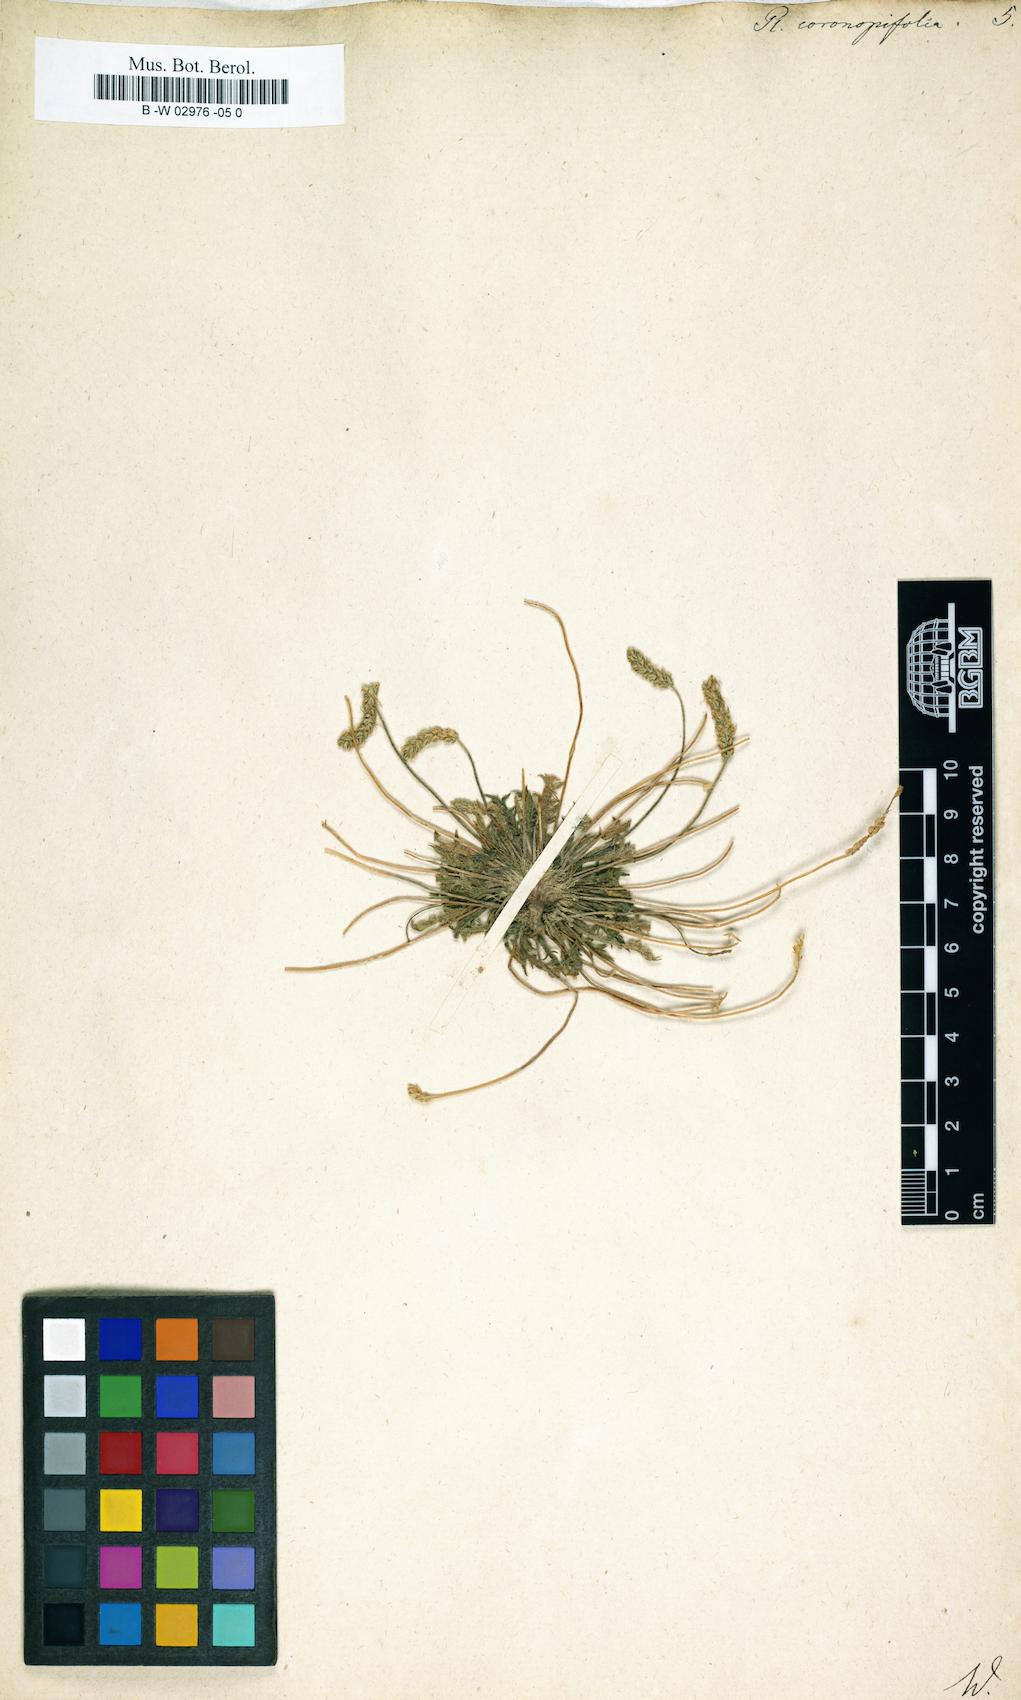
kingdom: Plantae
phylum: Tracheophyta
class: Magnoliopsida
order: Lamiales
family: Plantaginaceae
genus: Plantago
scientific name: Plantago
